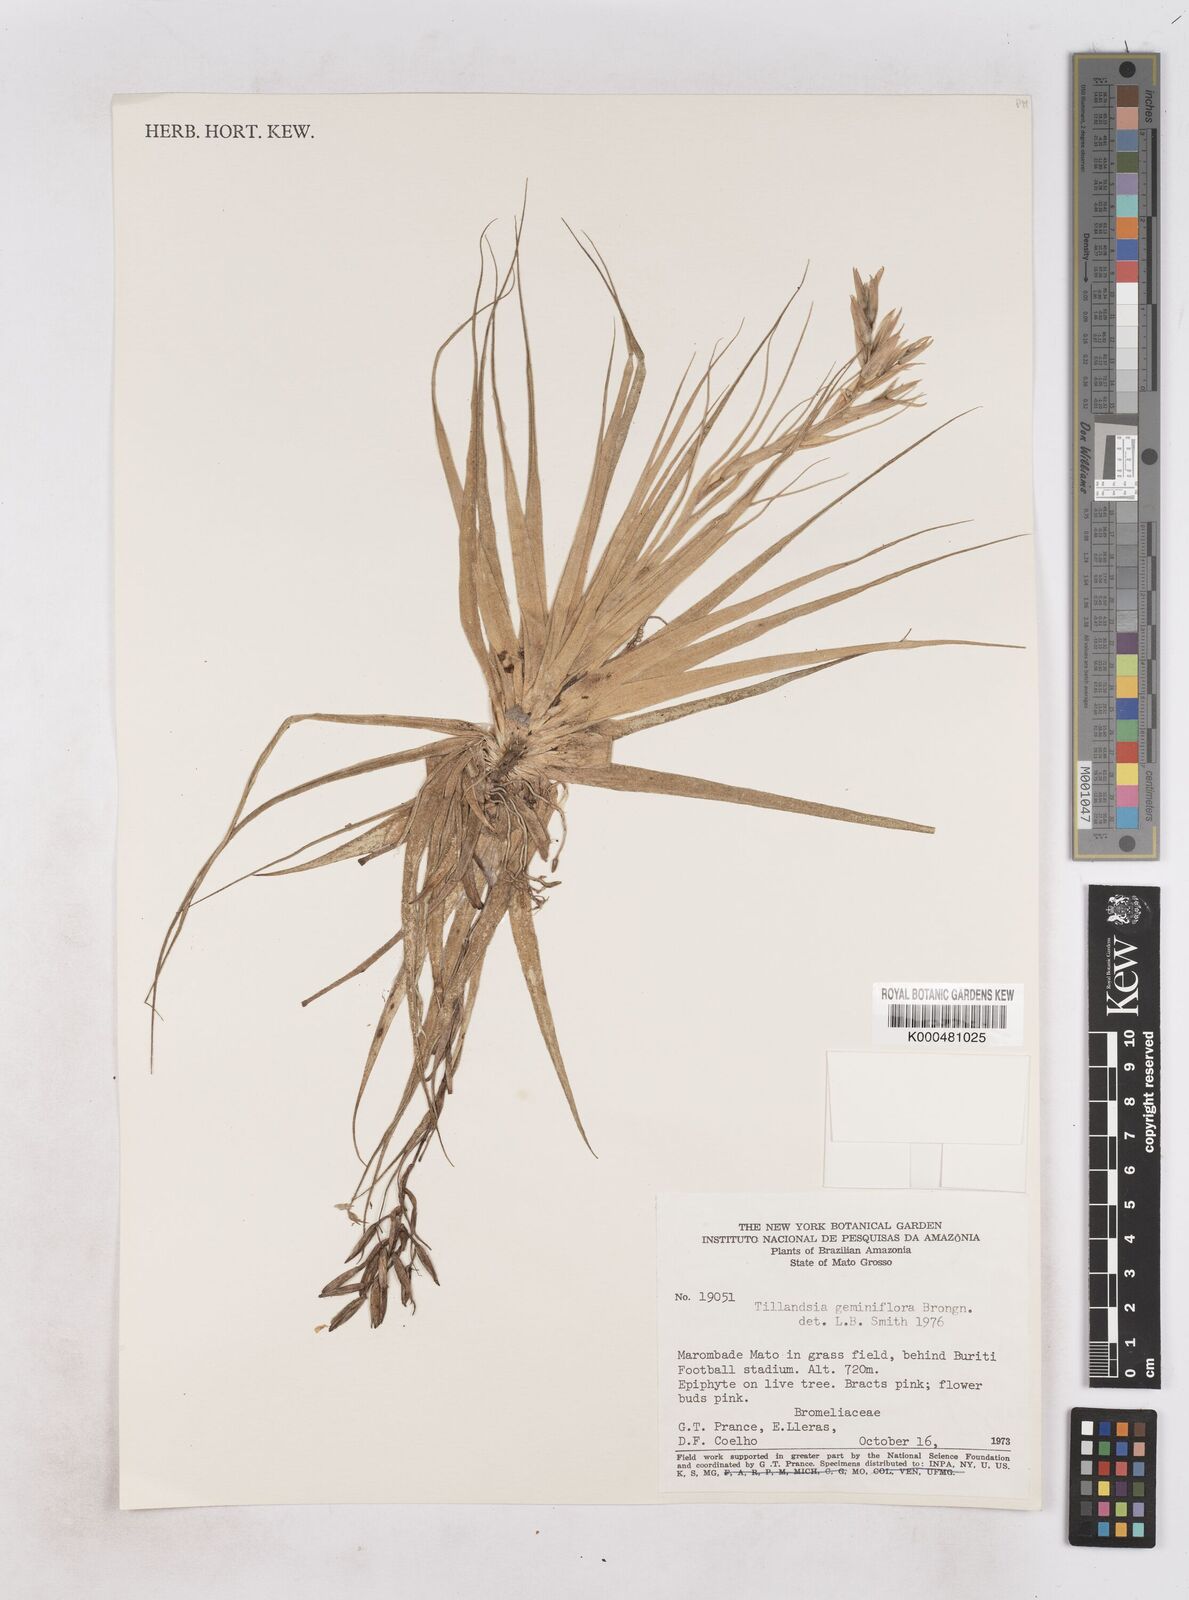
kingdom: Plantae
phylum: Tracheophyta
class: Liliopsida
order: Poales
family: Bromeliaceae
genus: Tillandsia
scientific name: Tillandsia geminiflora
